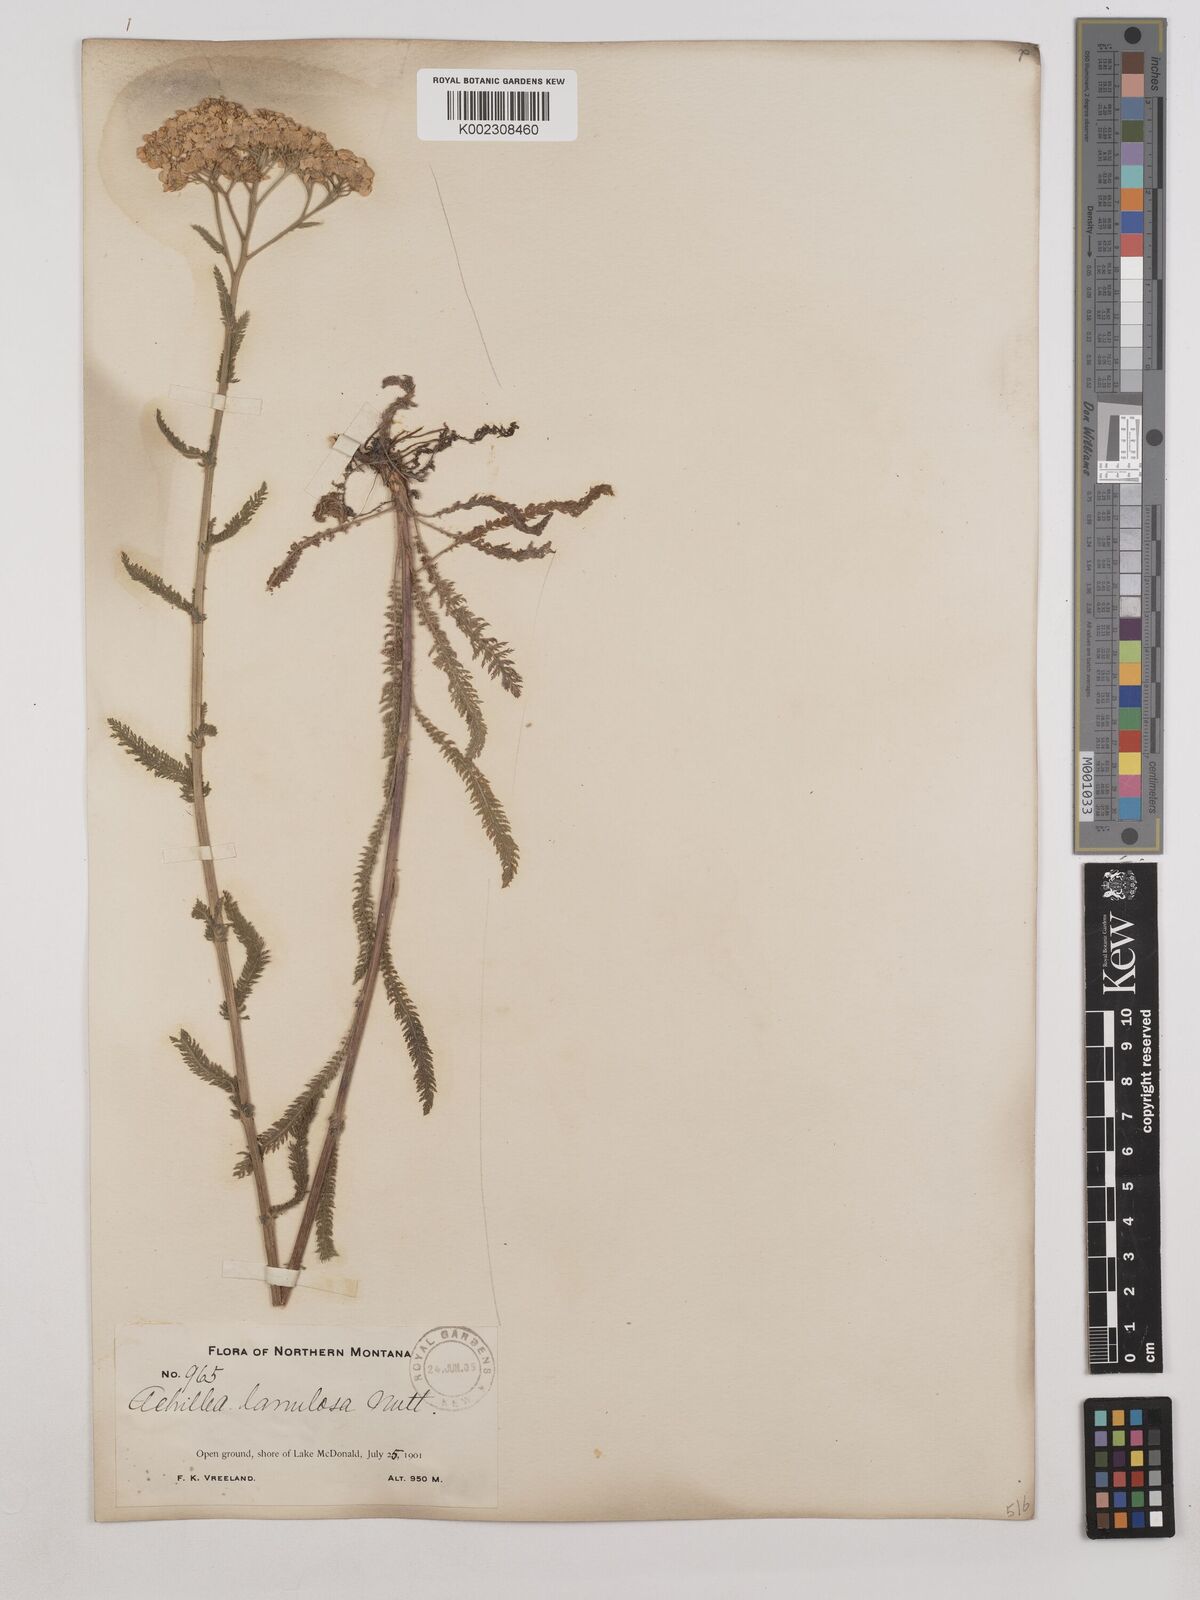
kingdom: Plantae
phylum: Tracheophyta
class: Magnoliopsida
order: Asterales
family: Asteraceae
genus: Achillea
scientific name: Achillea millefolium
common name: Yarrow
